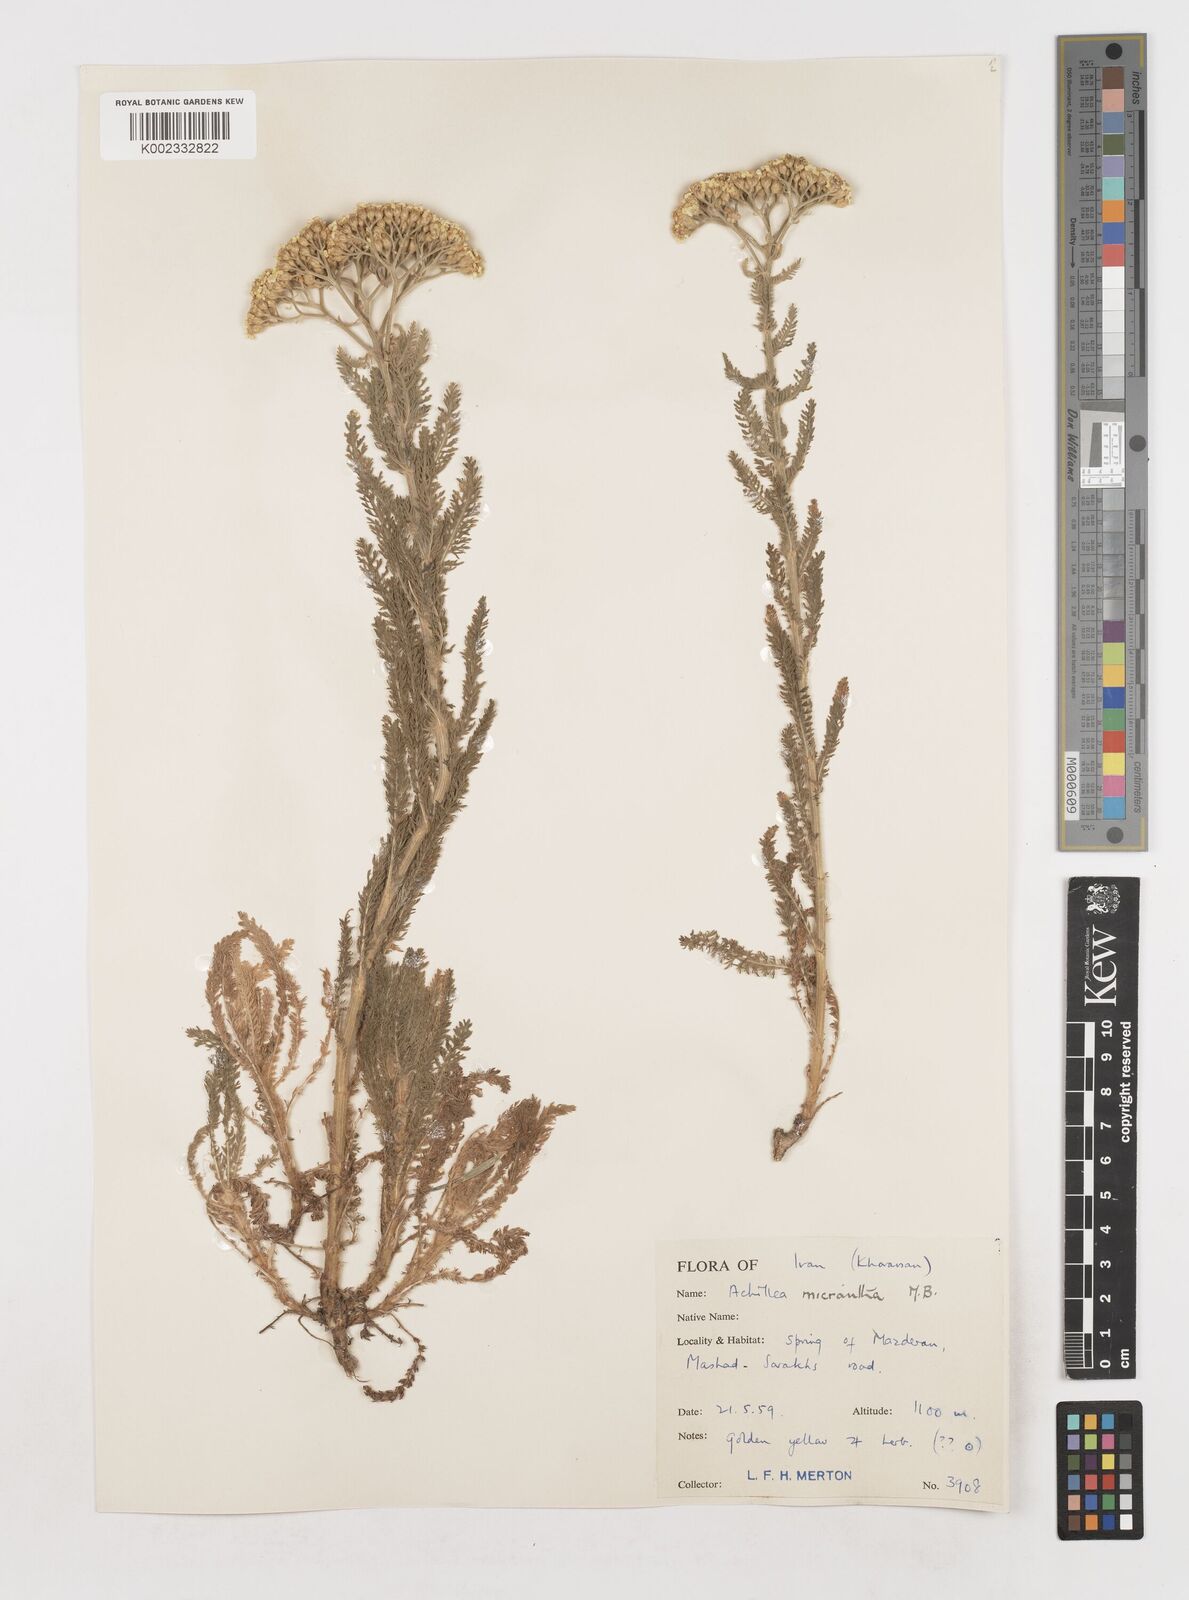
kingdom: Plantae
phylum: Tracheophyta
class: Magnoliopsida
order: Asterales
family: Asteraceae
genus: Achillea
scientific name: Achillea arabica
